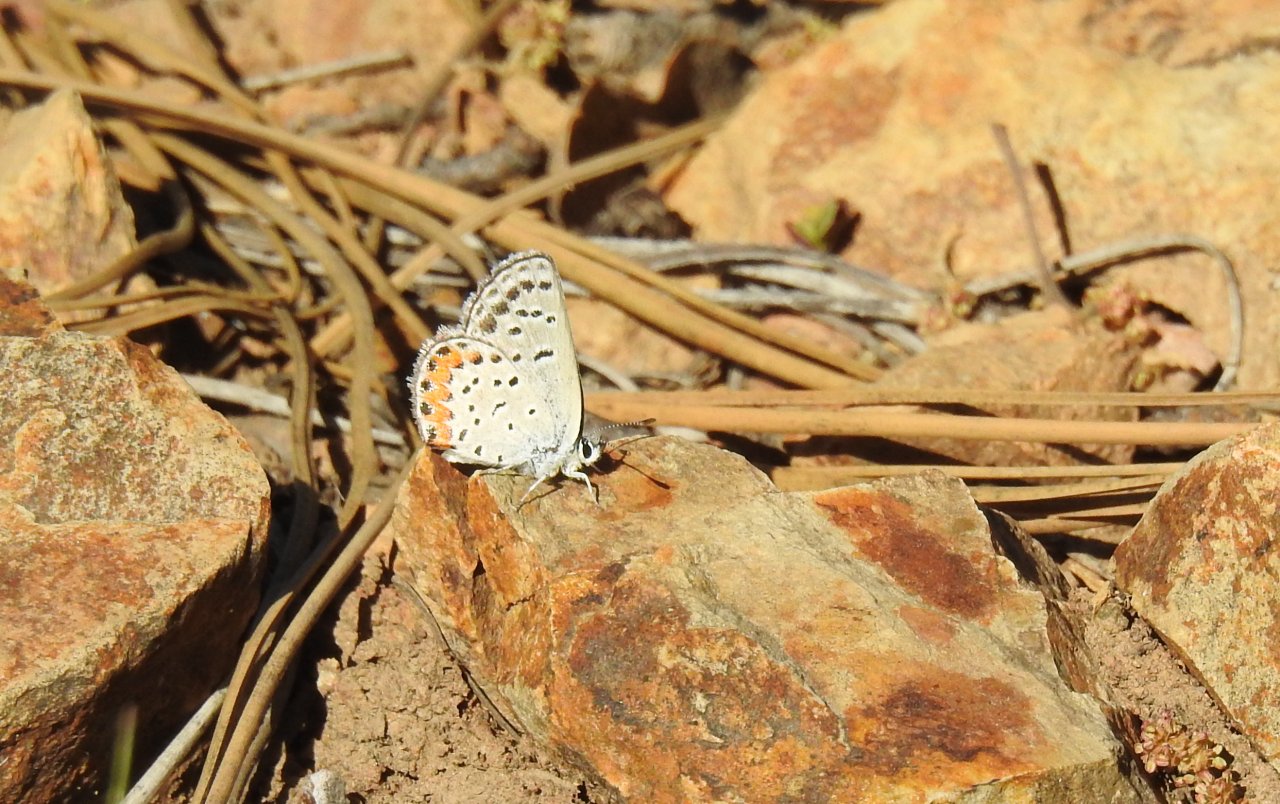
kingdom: Animalia
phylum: Arthropoda
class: Insecta
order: Lepidoptera
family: Lycaenidae
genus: Euphilotes
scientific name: Euphilotes battoides
